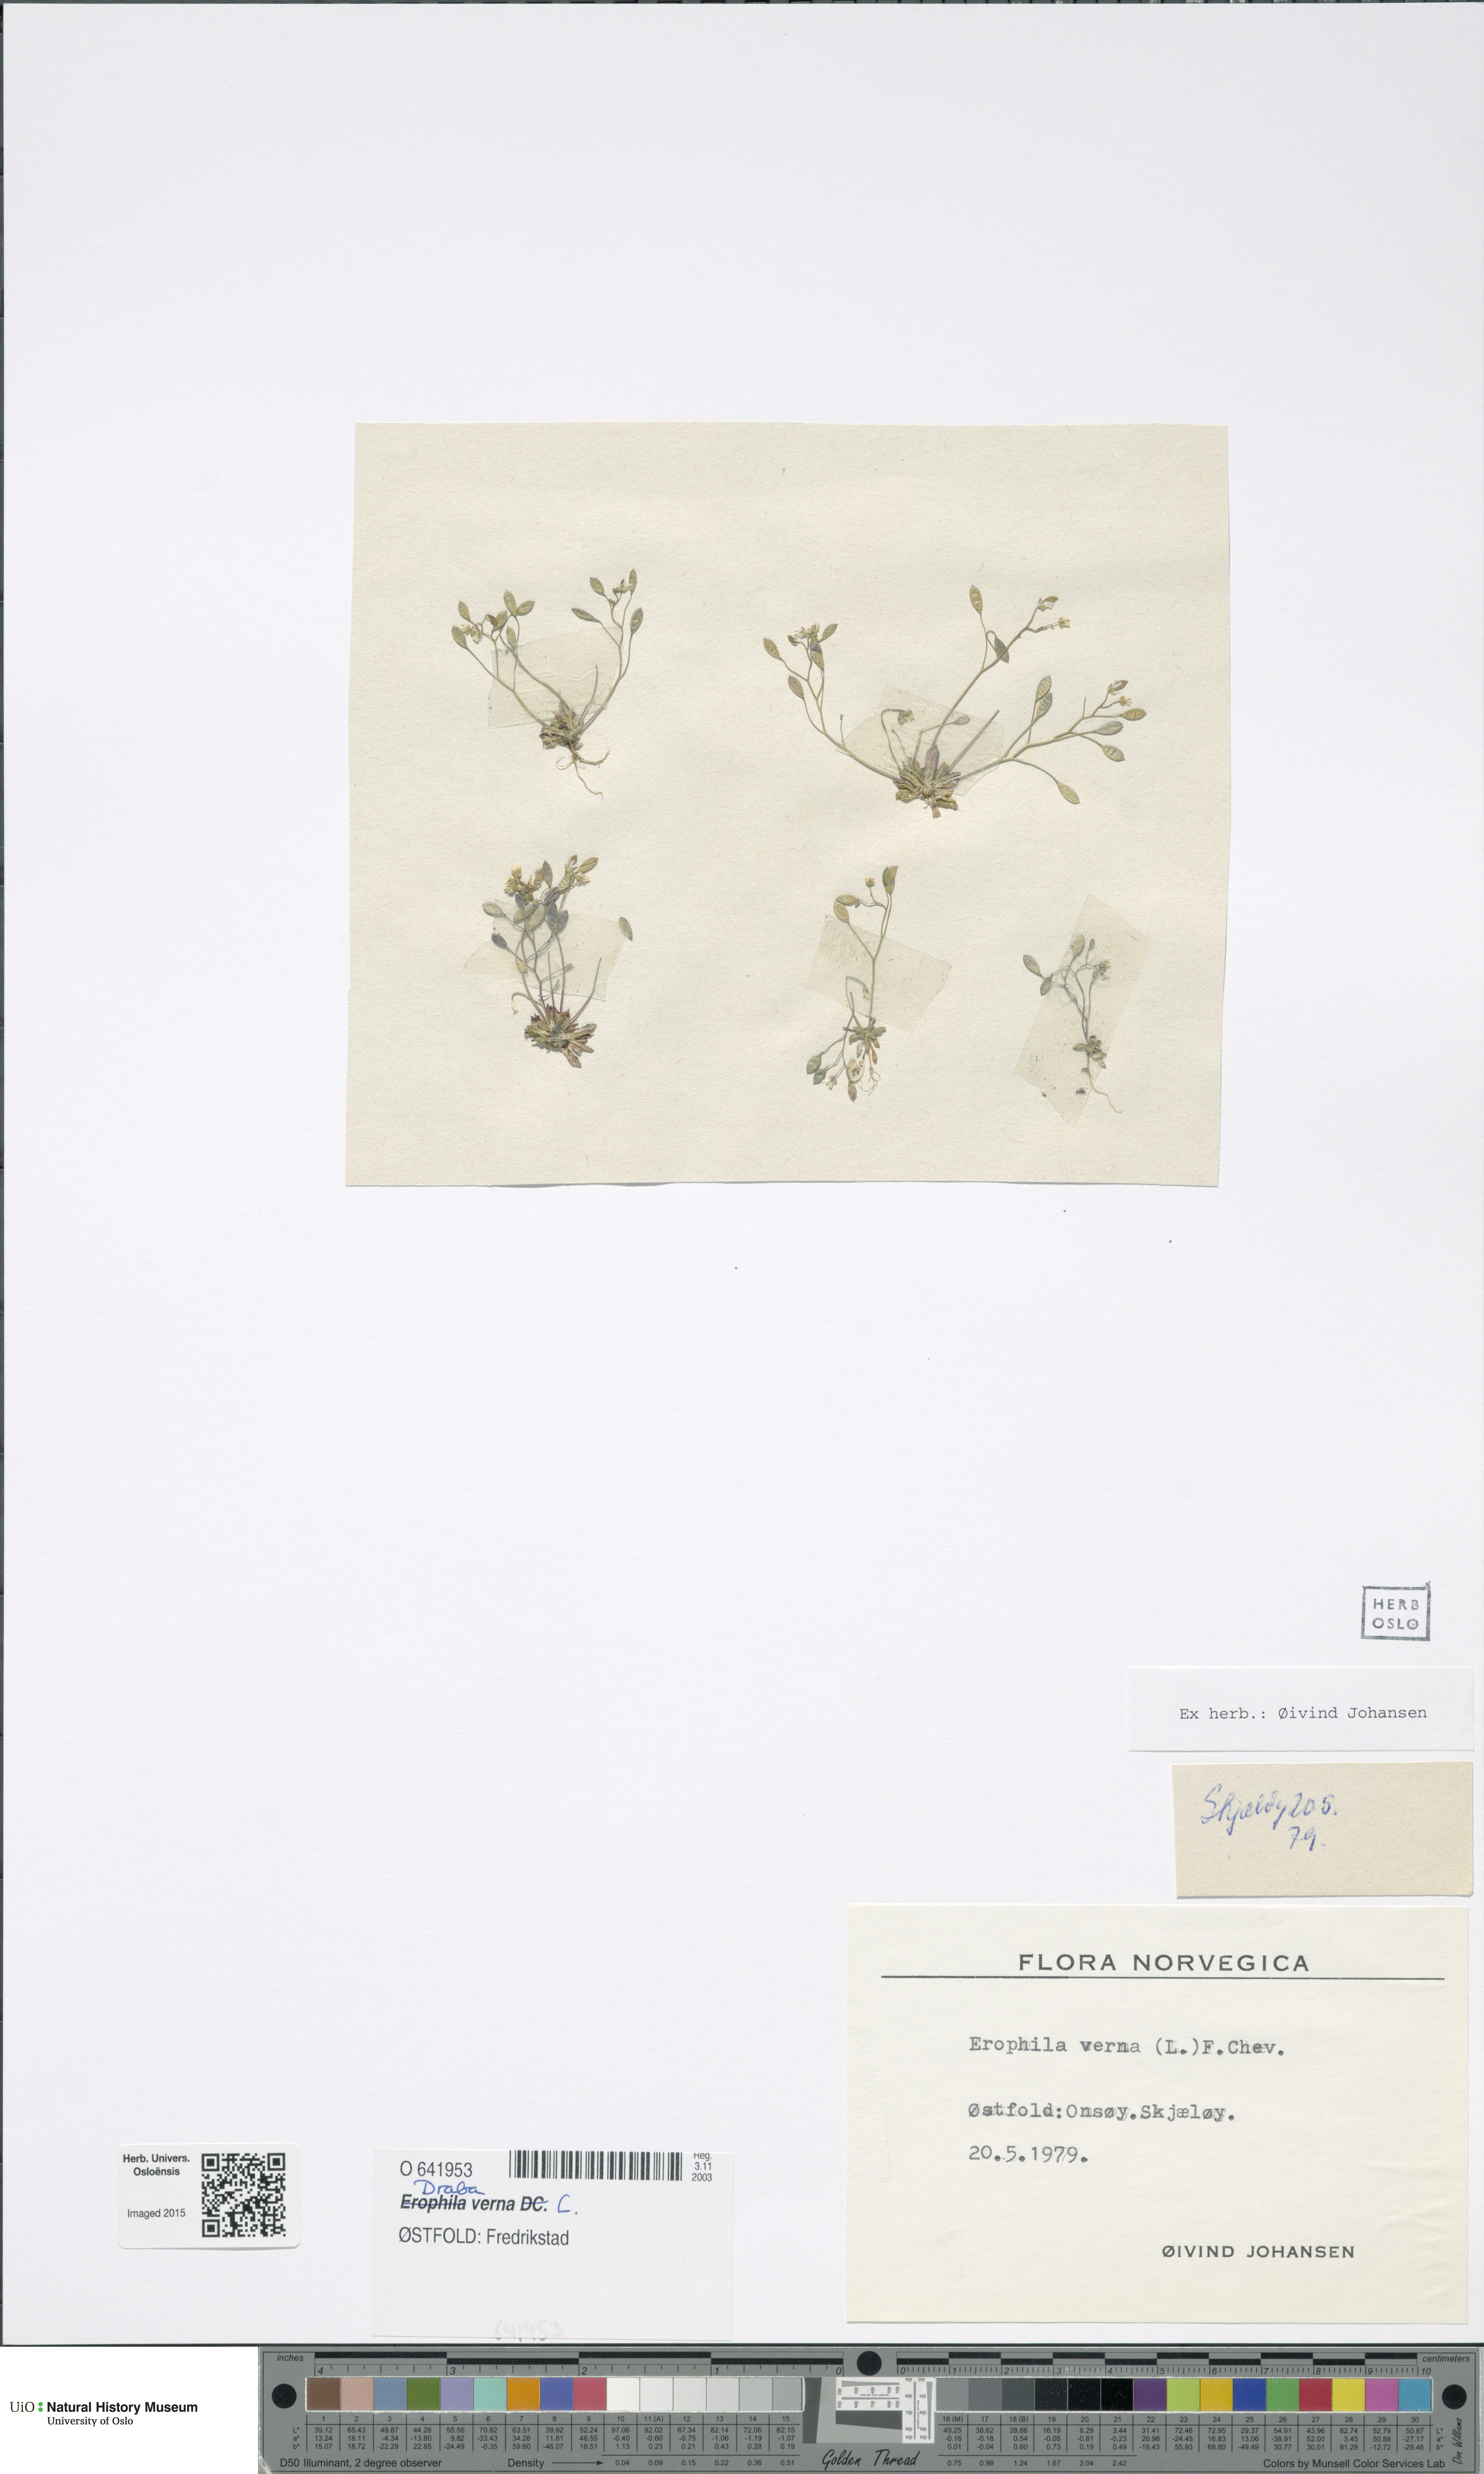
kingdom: Plantae
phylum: Tracheophyta
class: Magnoliopsida
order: Brassicales
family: Brassicaceae
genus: Draba
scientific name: Draba verna
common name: Spring draba
